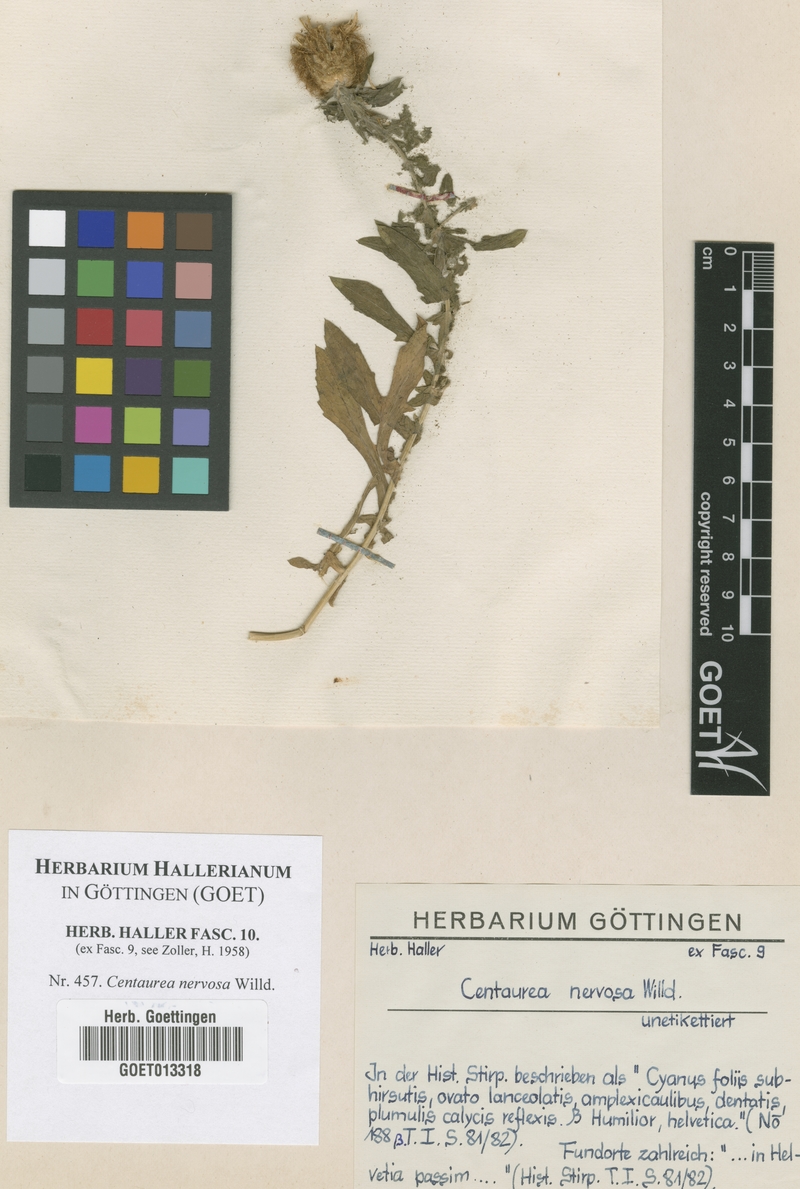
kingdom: Plantae
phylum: Tracheophyta
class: Magnoliopsida
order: Asterales
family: Asteraceae
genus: Centaurea
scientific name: Centaurea nervosa
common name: Singleflower knapweed
